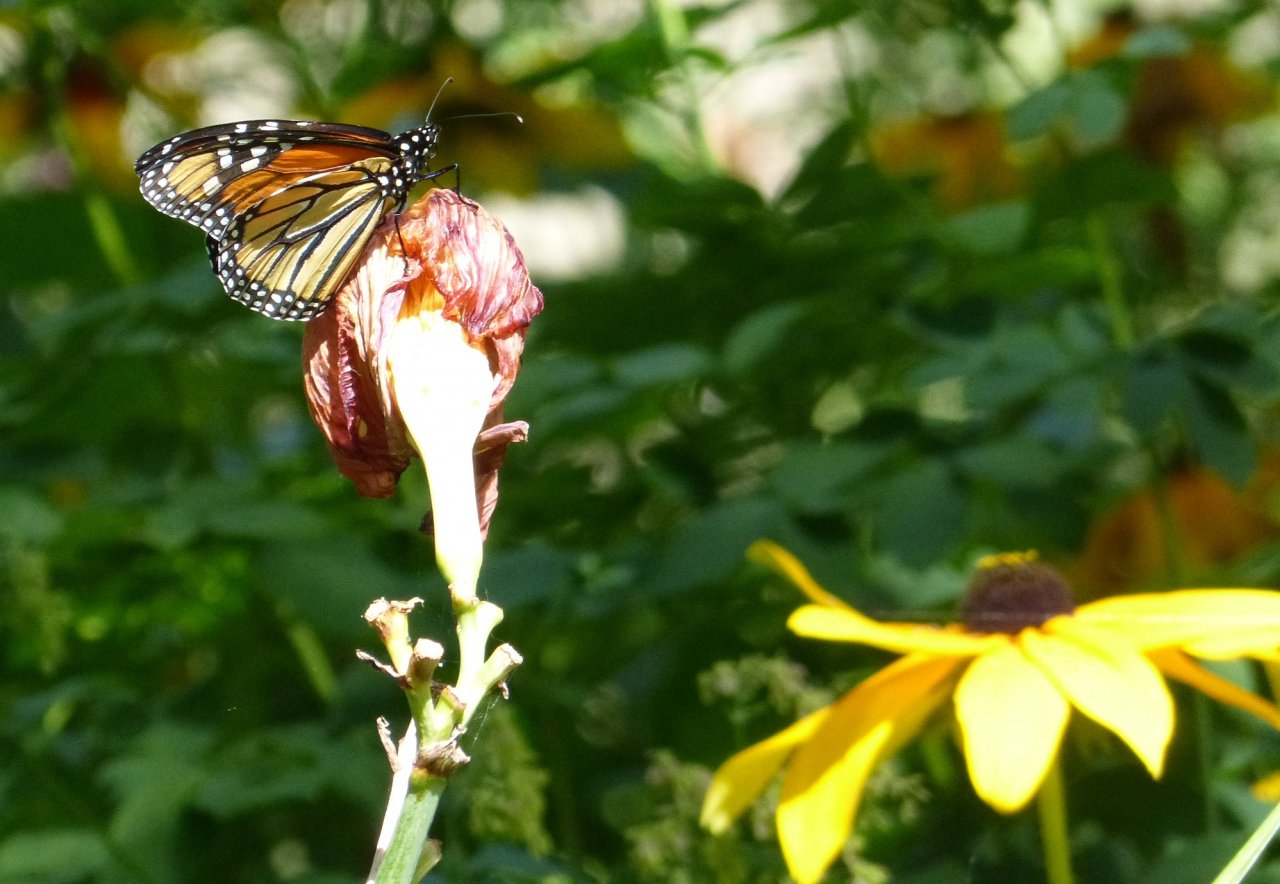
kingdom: Animalia
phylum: Arthropoda
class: Insecta
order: Lepidoptera
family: Nymphalidae
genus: Danaus
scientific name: Danaus plexippus
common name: Monarch
